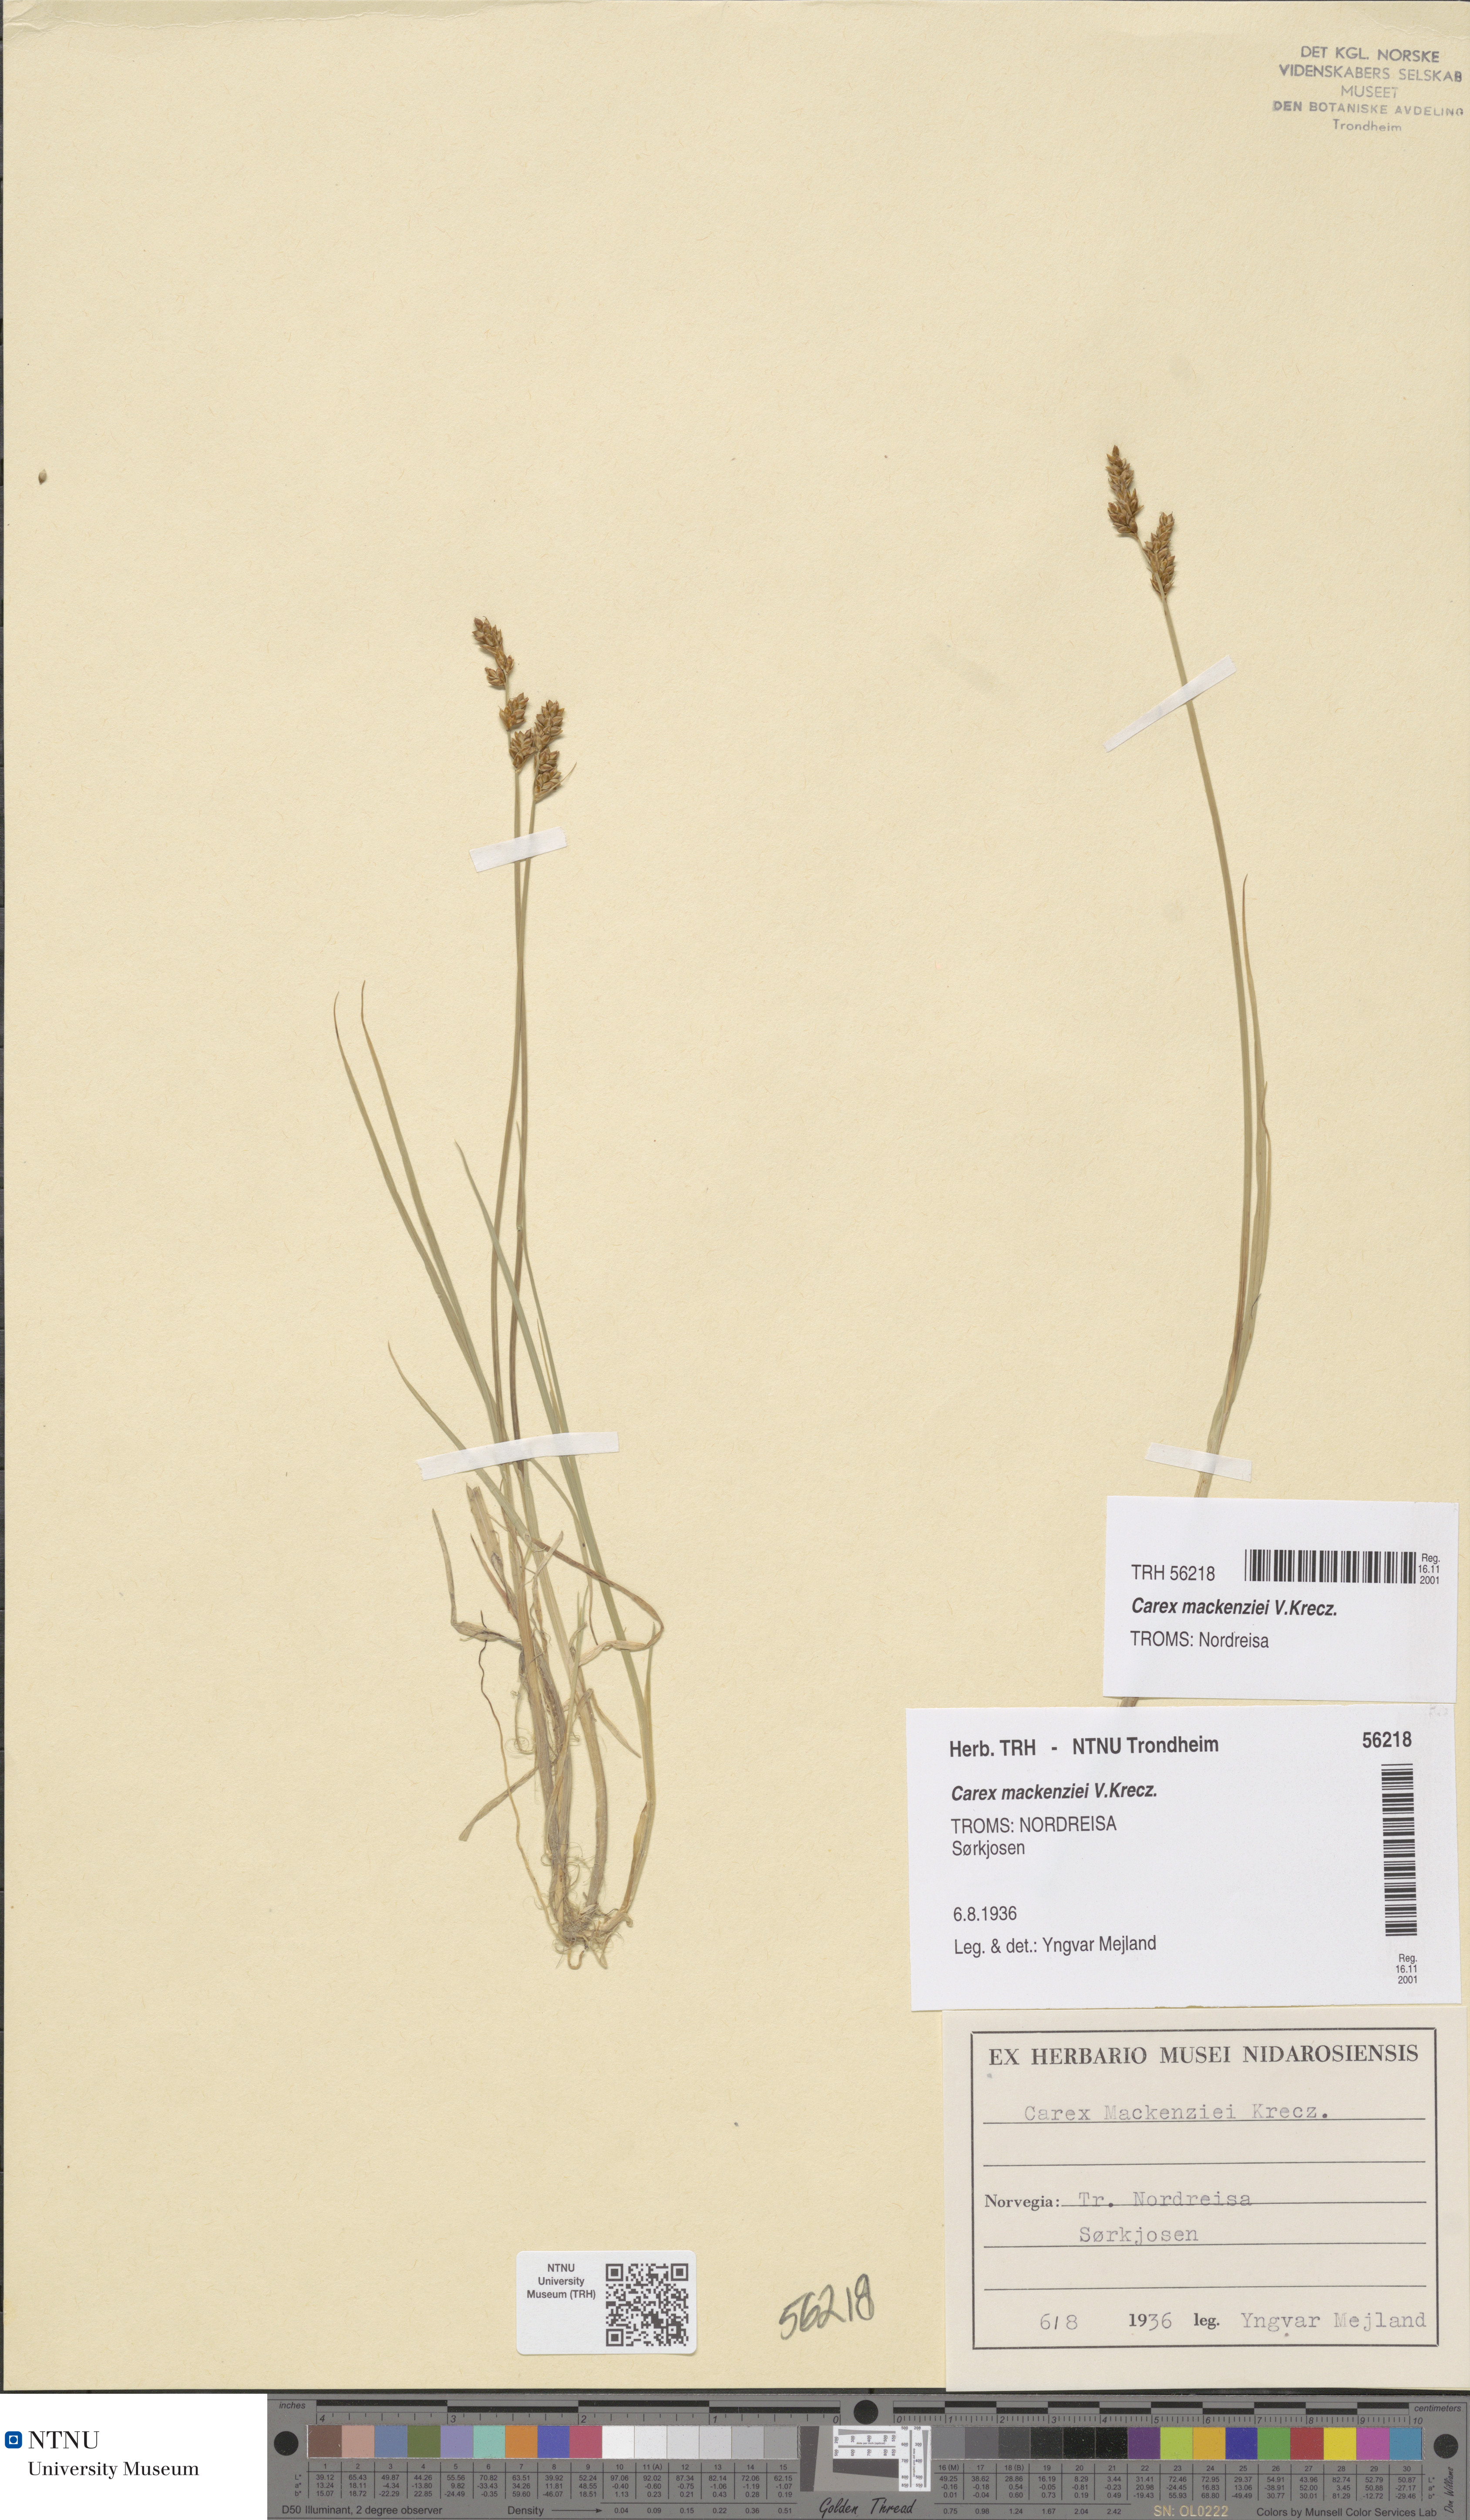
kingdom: Plantae
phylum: Tracheophyta
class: Liliopsida
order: Poales
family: Cyperaceae
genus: Carex
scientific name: Carex mackenziei
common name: Mackenzie's sedge
